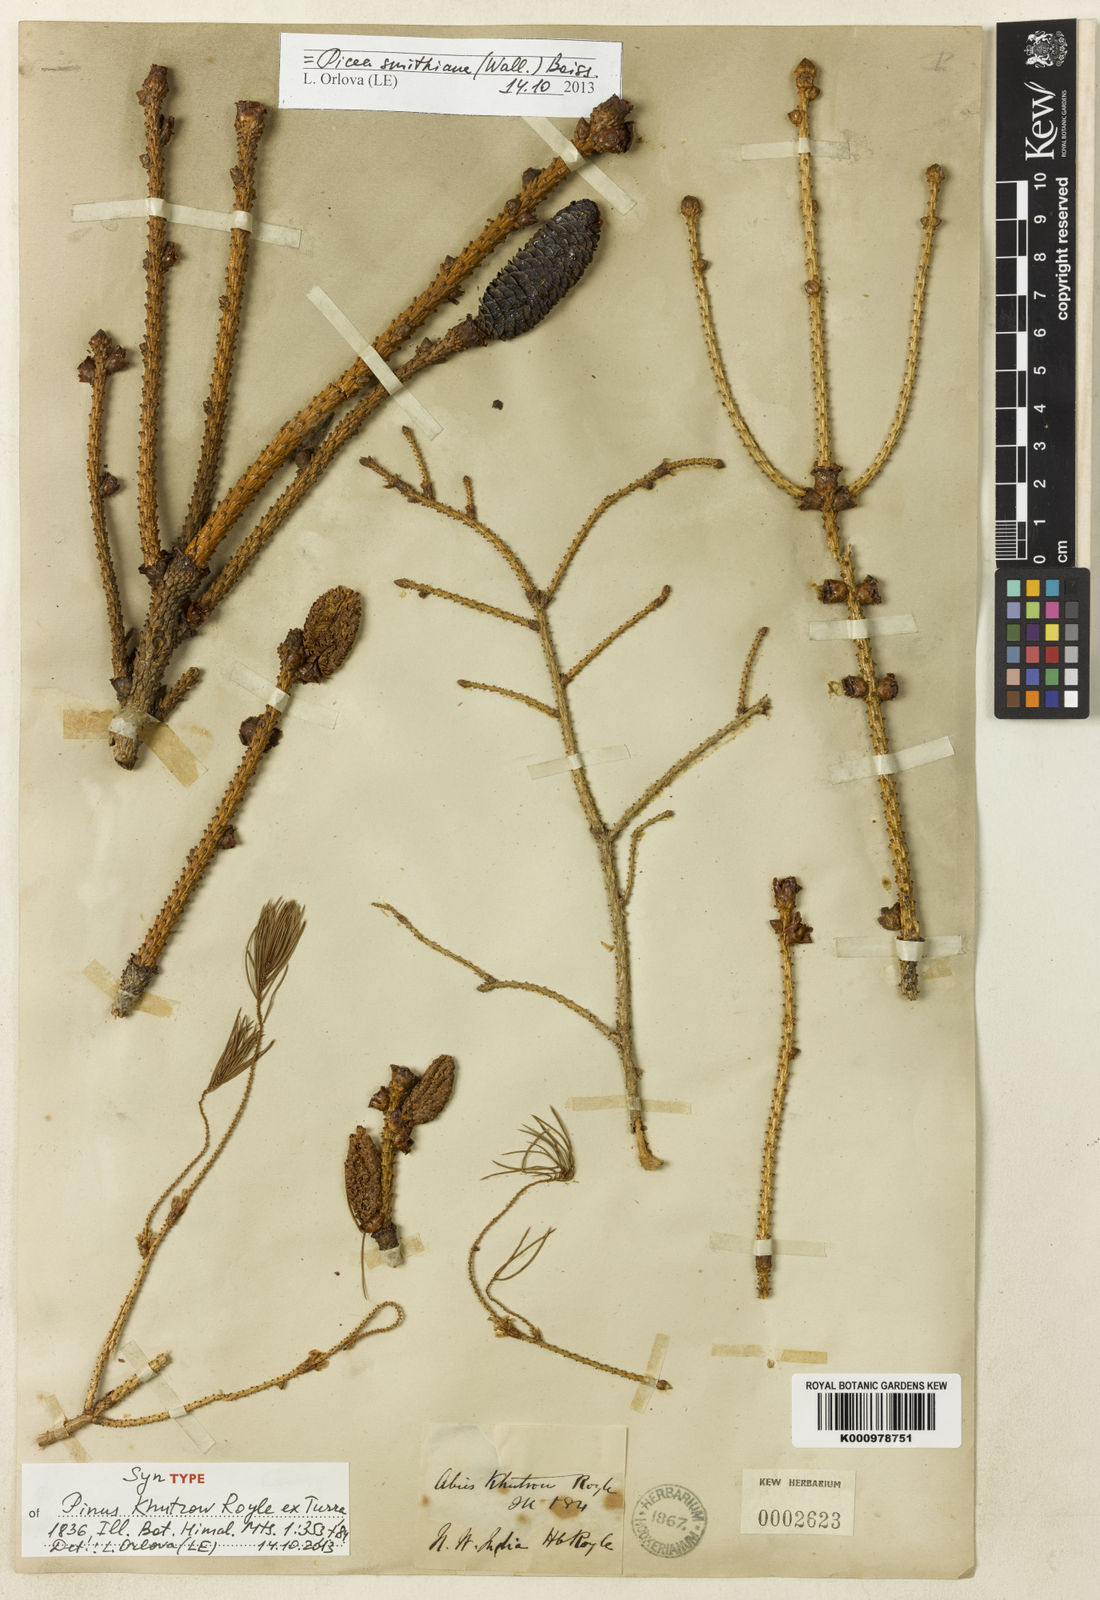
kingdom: Plantae
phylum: Tracheophyta
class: Pinopsida
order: Pinales
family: Pinaceae
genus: Pinus
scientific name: Pinus
